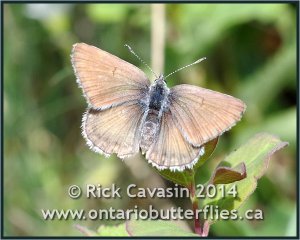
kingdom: Animalia
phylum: Arthropoda
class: Insecta
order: Lepidoptera
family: Lycaenidae
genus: Icaricia
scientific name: Icaricia icarioides
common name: Boisduval's Blue
